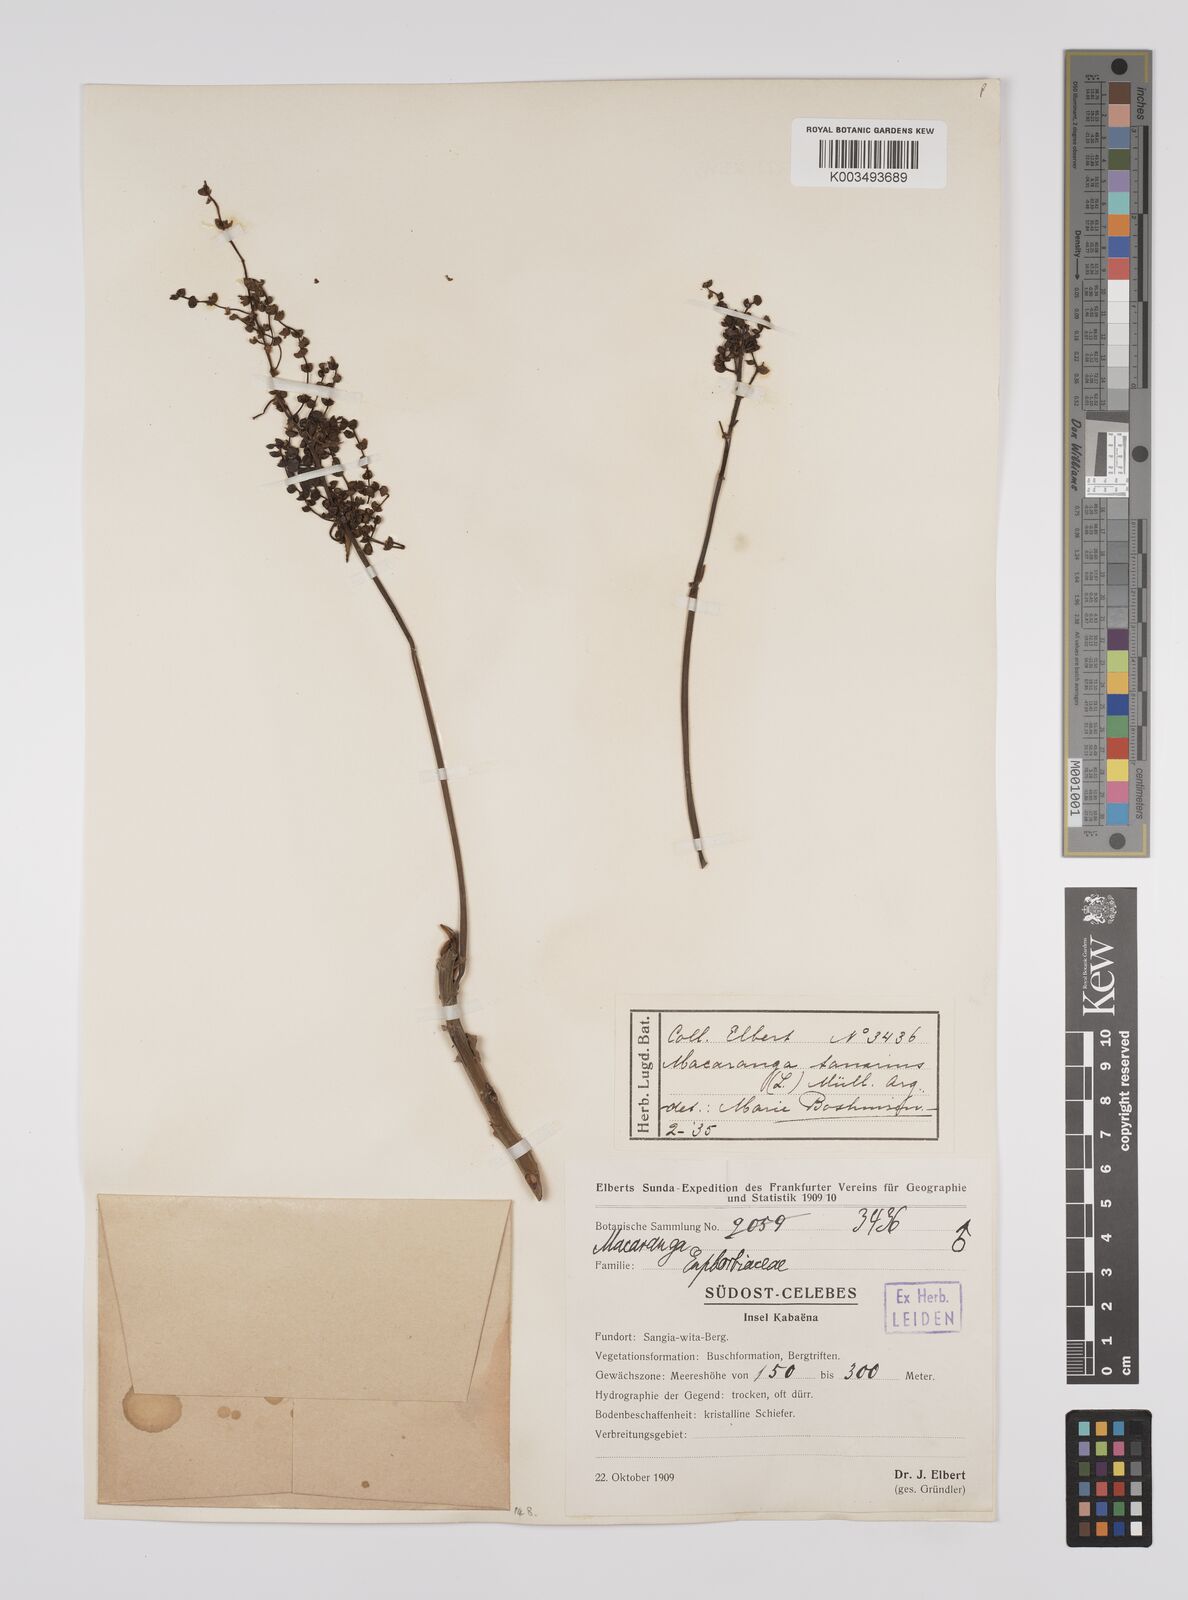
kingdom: Plantae
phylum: Tracheophyta
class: Magnoliopsida
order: Malpighiales
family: Euphorbiaceae
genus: Macaranga
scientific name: Macaranga tanarius
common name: Parasol leaf tree
